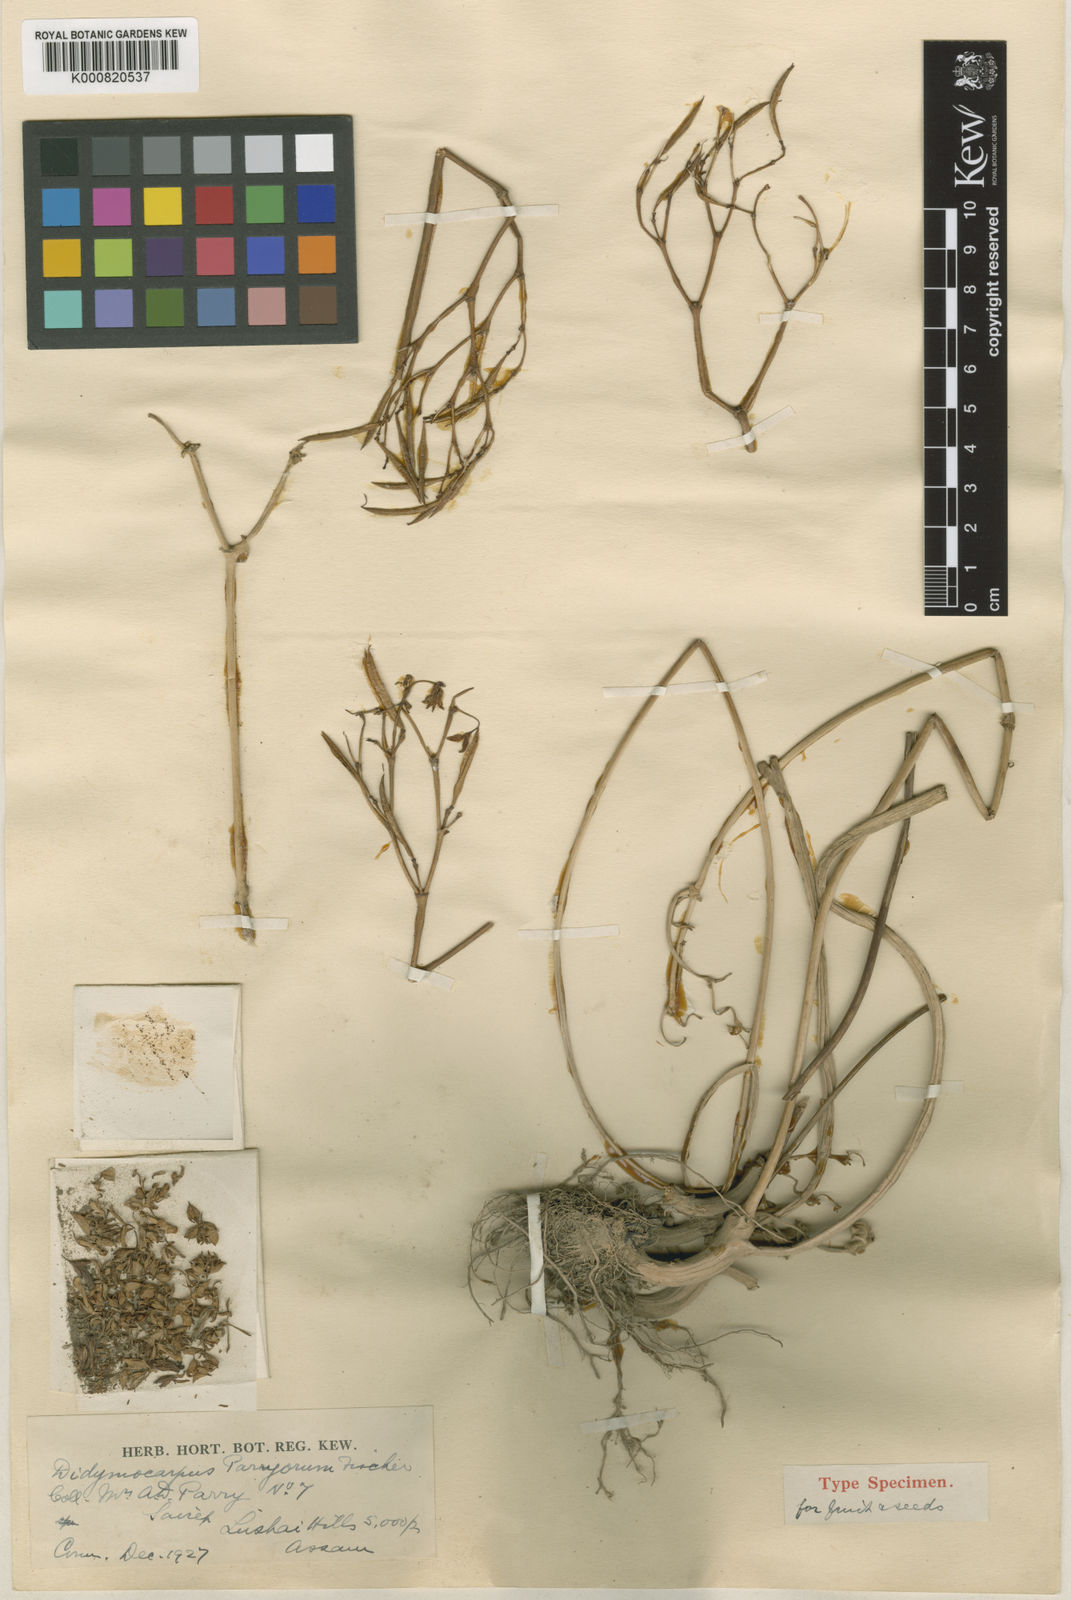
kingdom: Plantae
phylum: Tracheophyta
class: Magnoliopsida
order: Lamiales
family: Gesneriaceae
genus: Didymocarpus
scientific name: Didymocarpus parryorum
